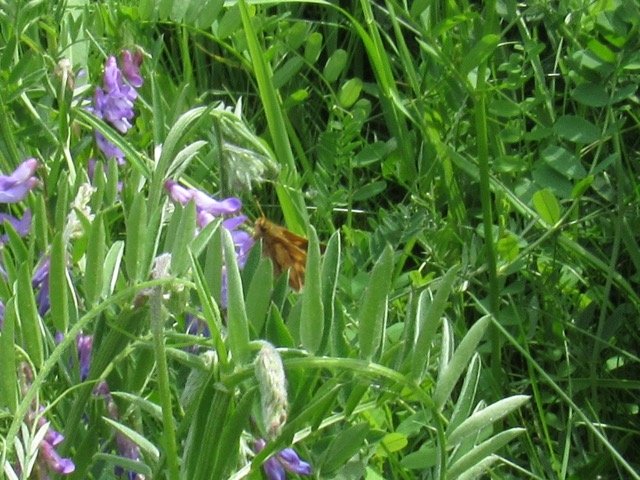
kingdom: Animalia
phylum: Arthropoda
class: Insecta
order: Lepidoptera
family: Hesperiidae
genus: Polites
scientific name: Polites coras
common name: Peck's Skipper
